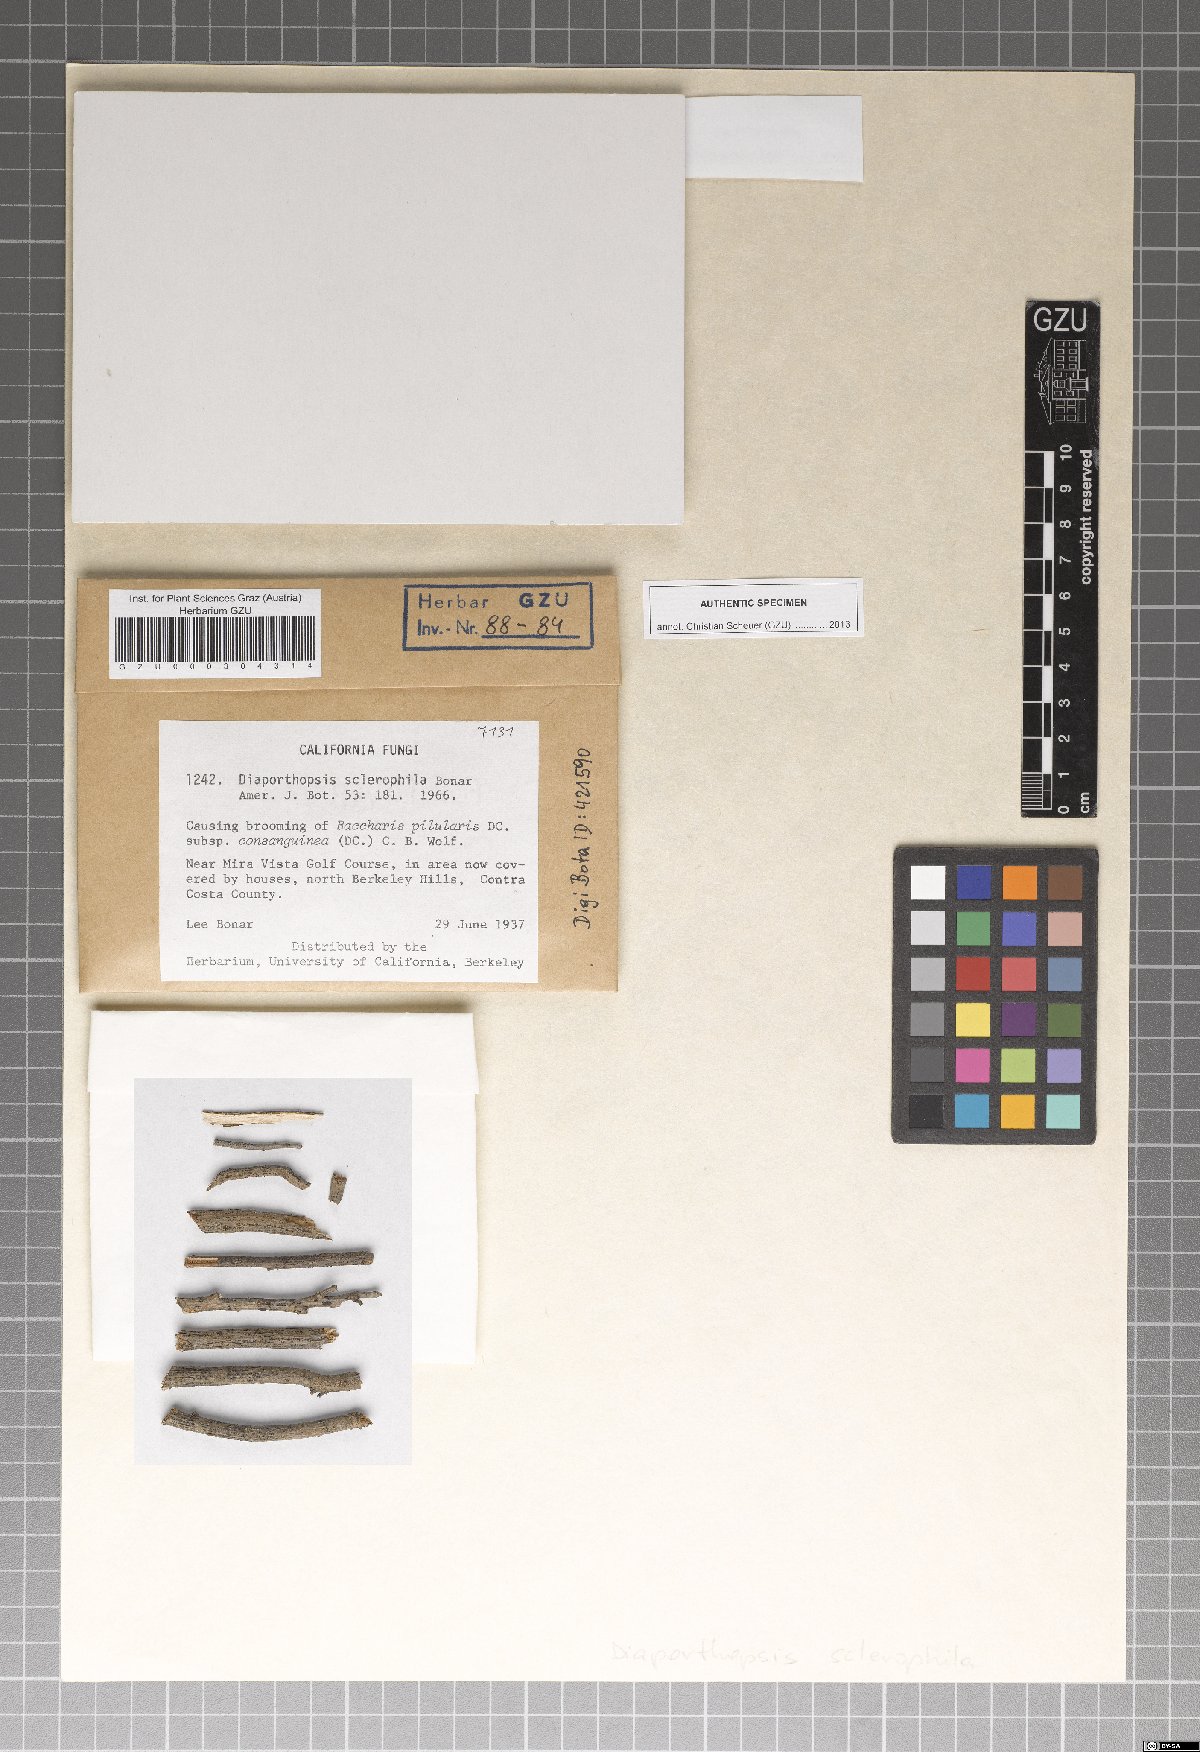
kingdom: Fungi
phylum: Ascomycota
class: Sordariomycetes
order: Diaporthales
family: Diaporthaceae
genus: Diaporthopsis
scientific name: Diaporthopsis sclerophila
